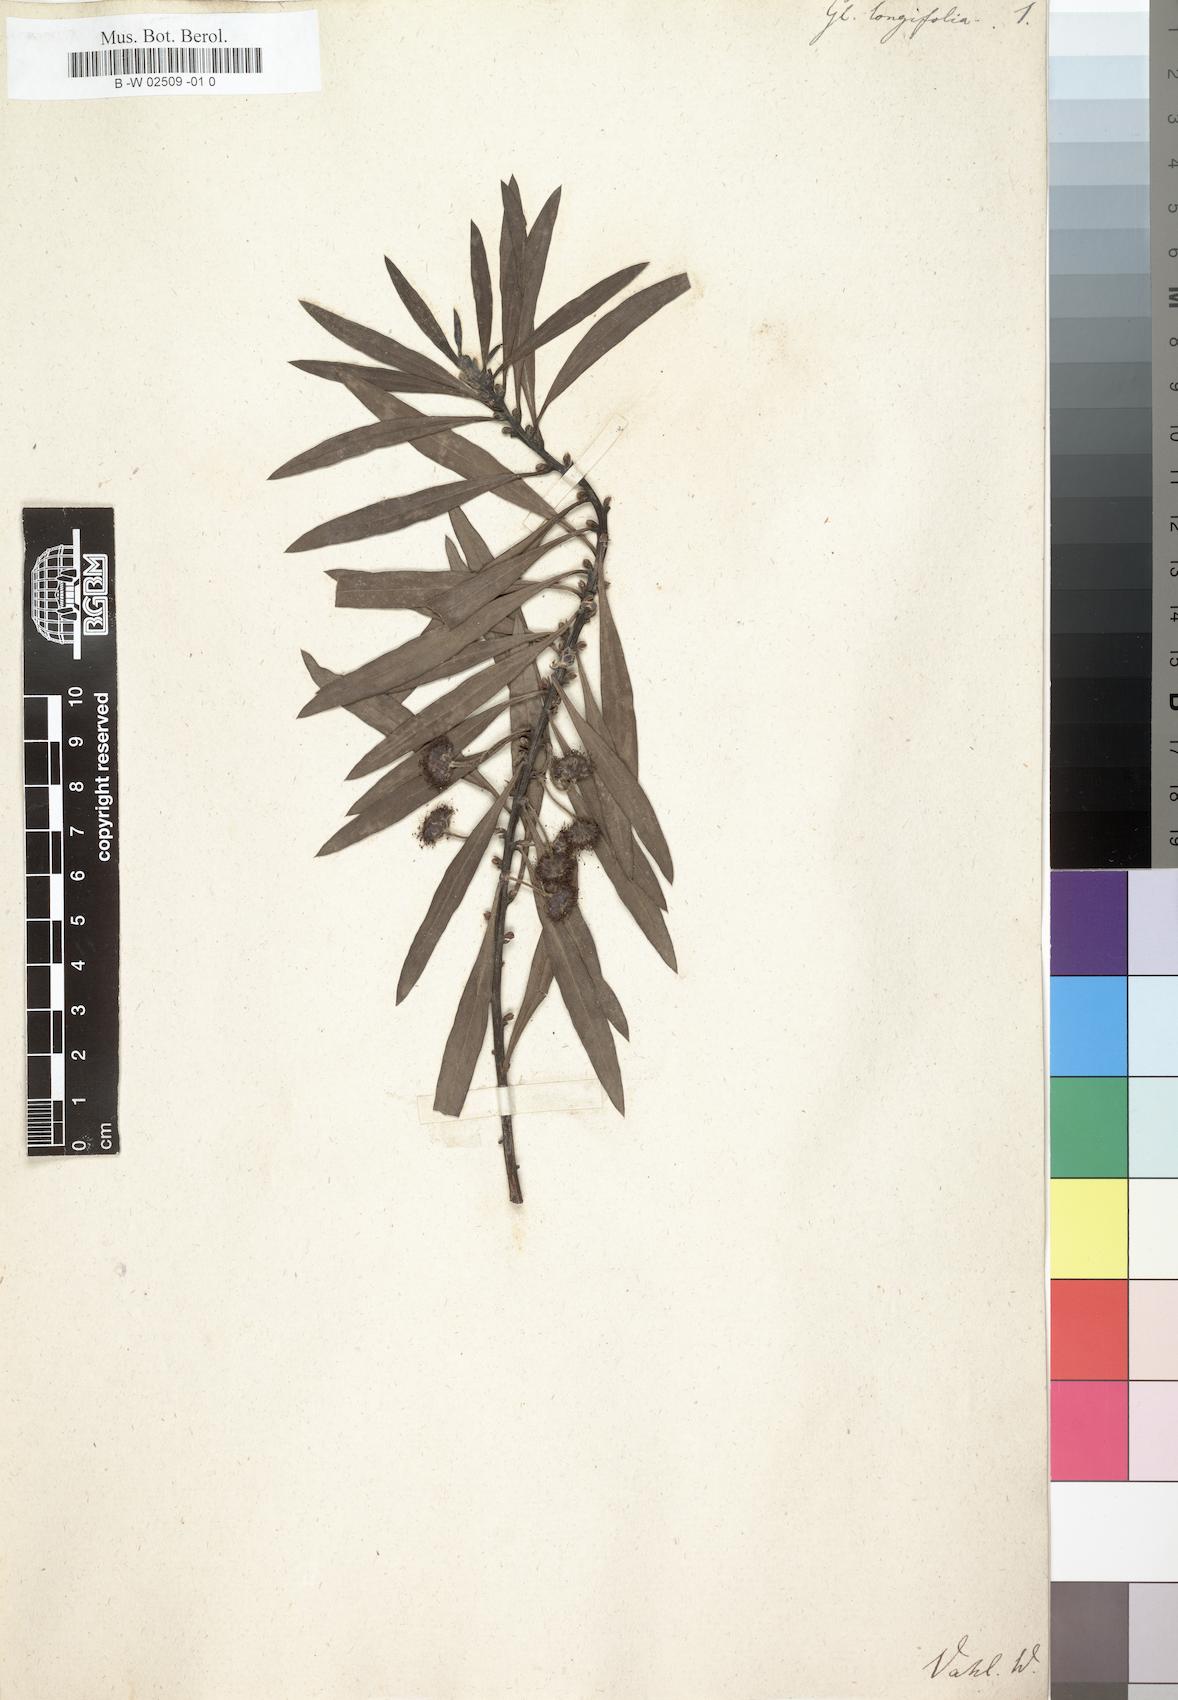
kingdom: Plantae
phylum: Tracheophyta
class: Magnoliopsida
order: Lamiales
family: Plantaginaceae
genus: Globularia
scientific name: Globularia salicina
